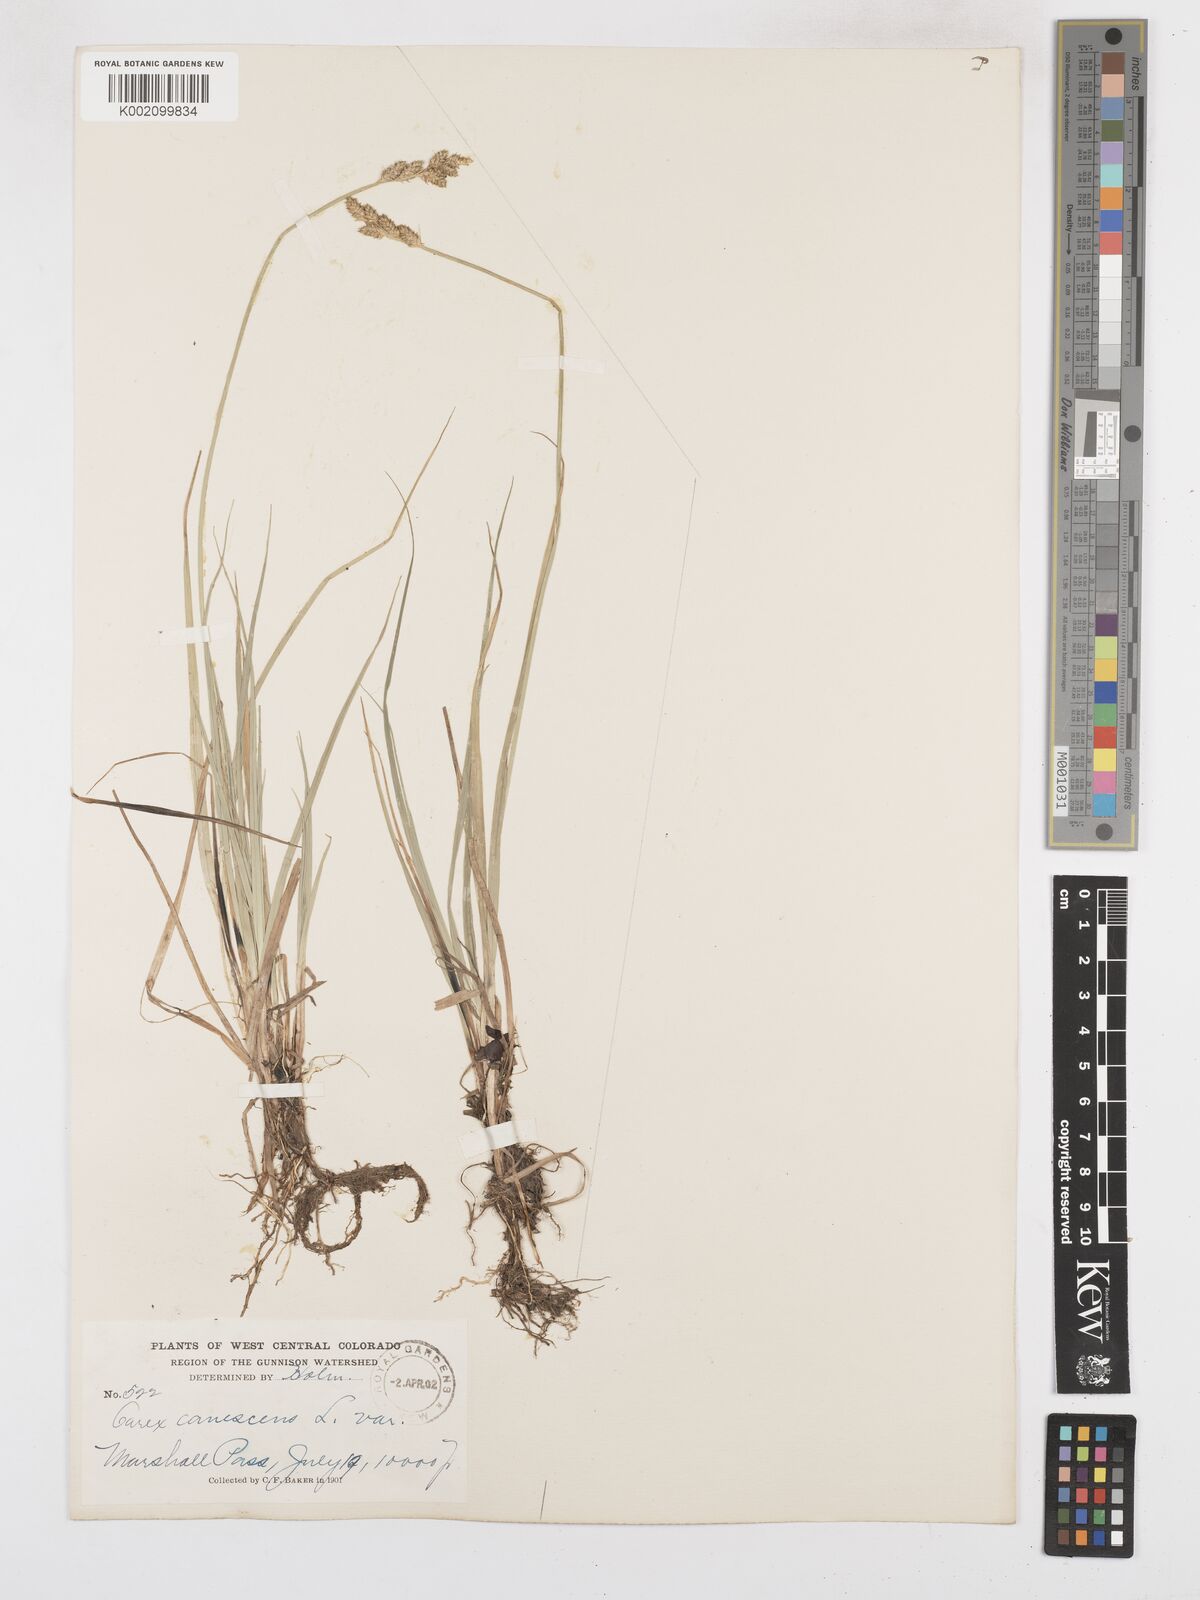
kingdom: Plantae
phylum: Tracheophyta
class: Liliopsida
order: Poales
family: Cyperaceae
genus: Carex
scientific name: Carex curta
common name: White sedge
